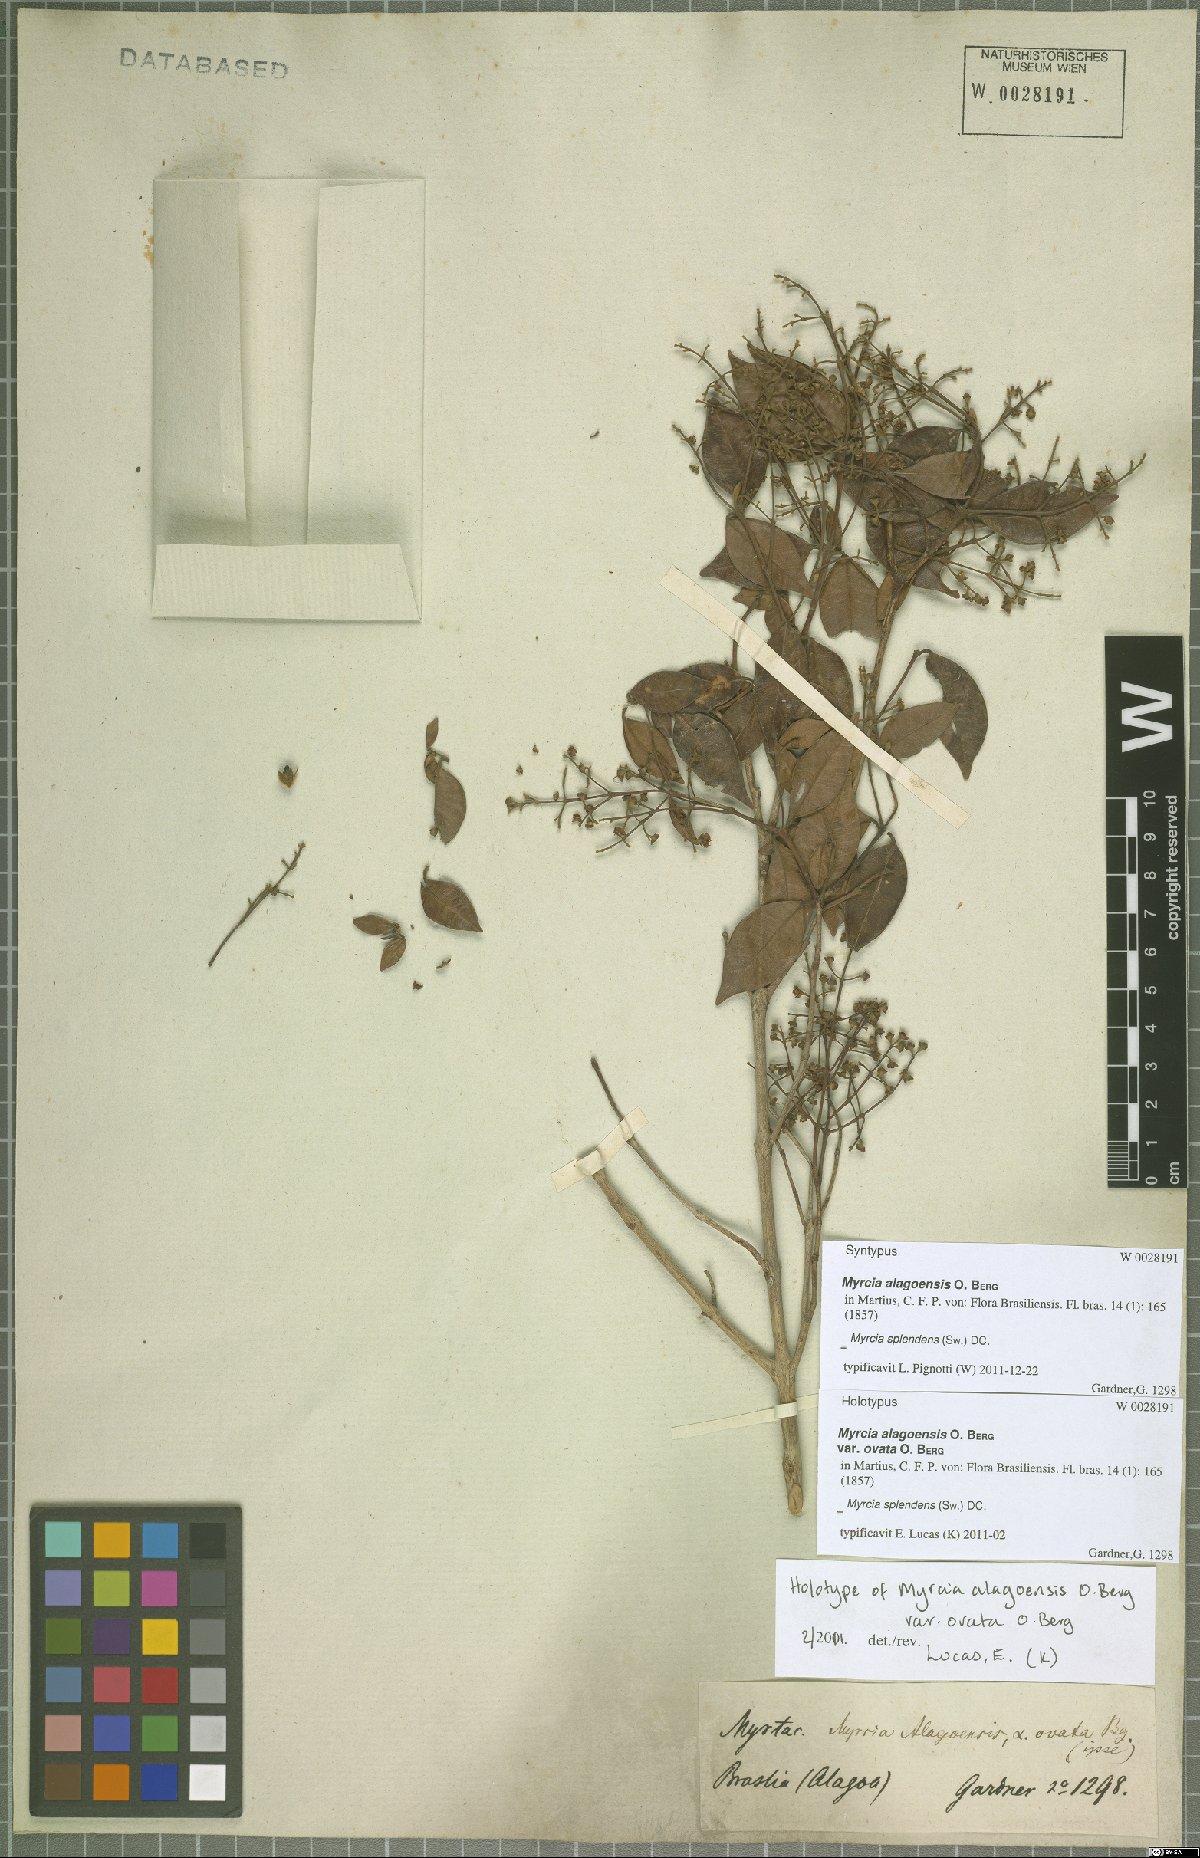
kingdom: Plantae
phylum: Tracheophyta
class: Magnoliopsida
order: Myrtales
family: Myrtaceae
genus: Myrcia
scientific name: Myrcia splendens
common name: Surinam cherry
